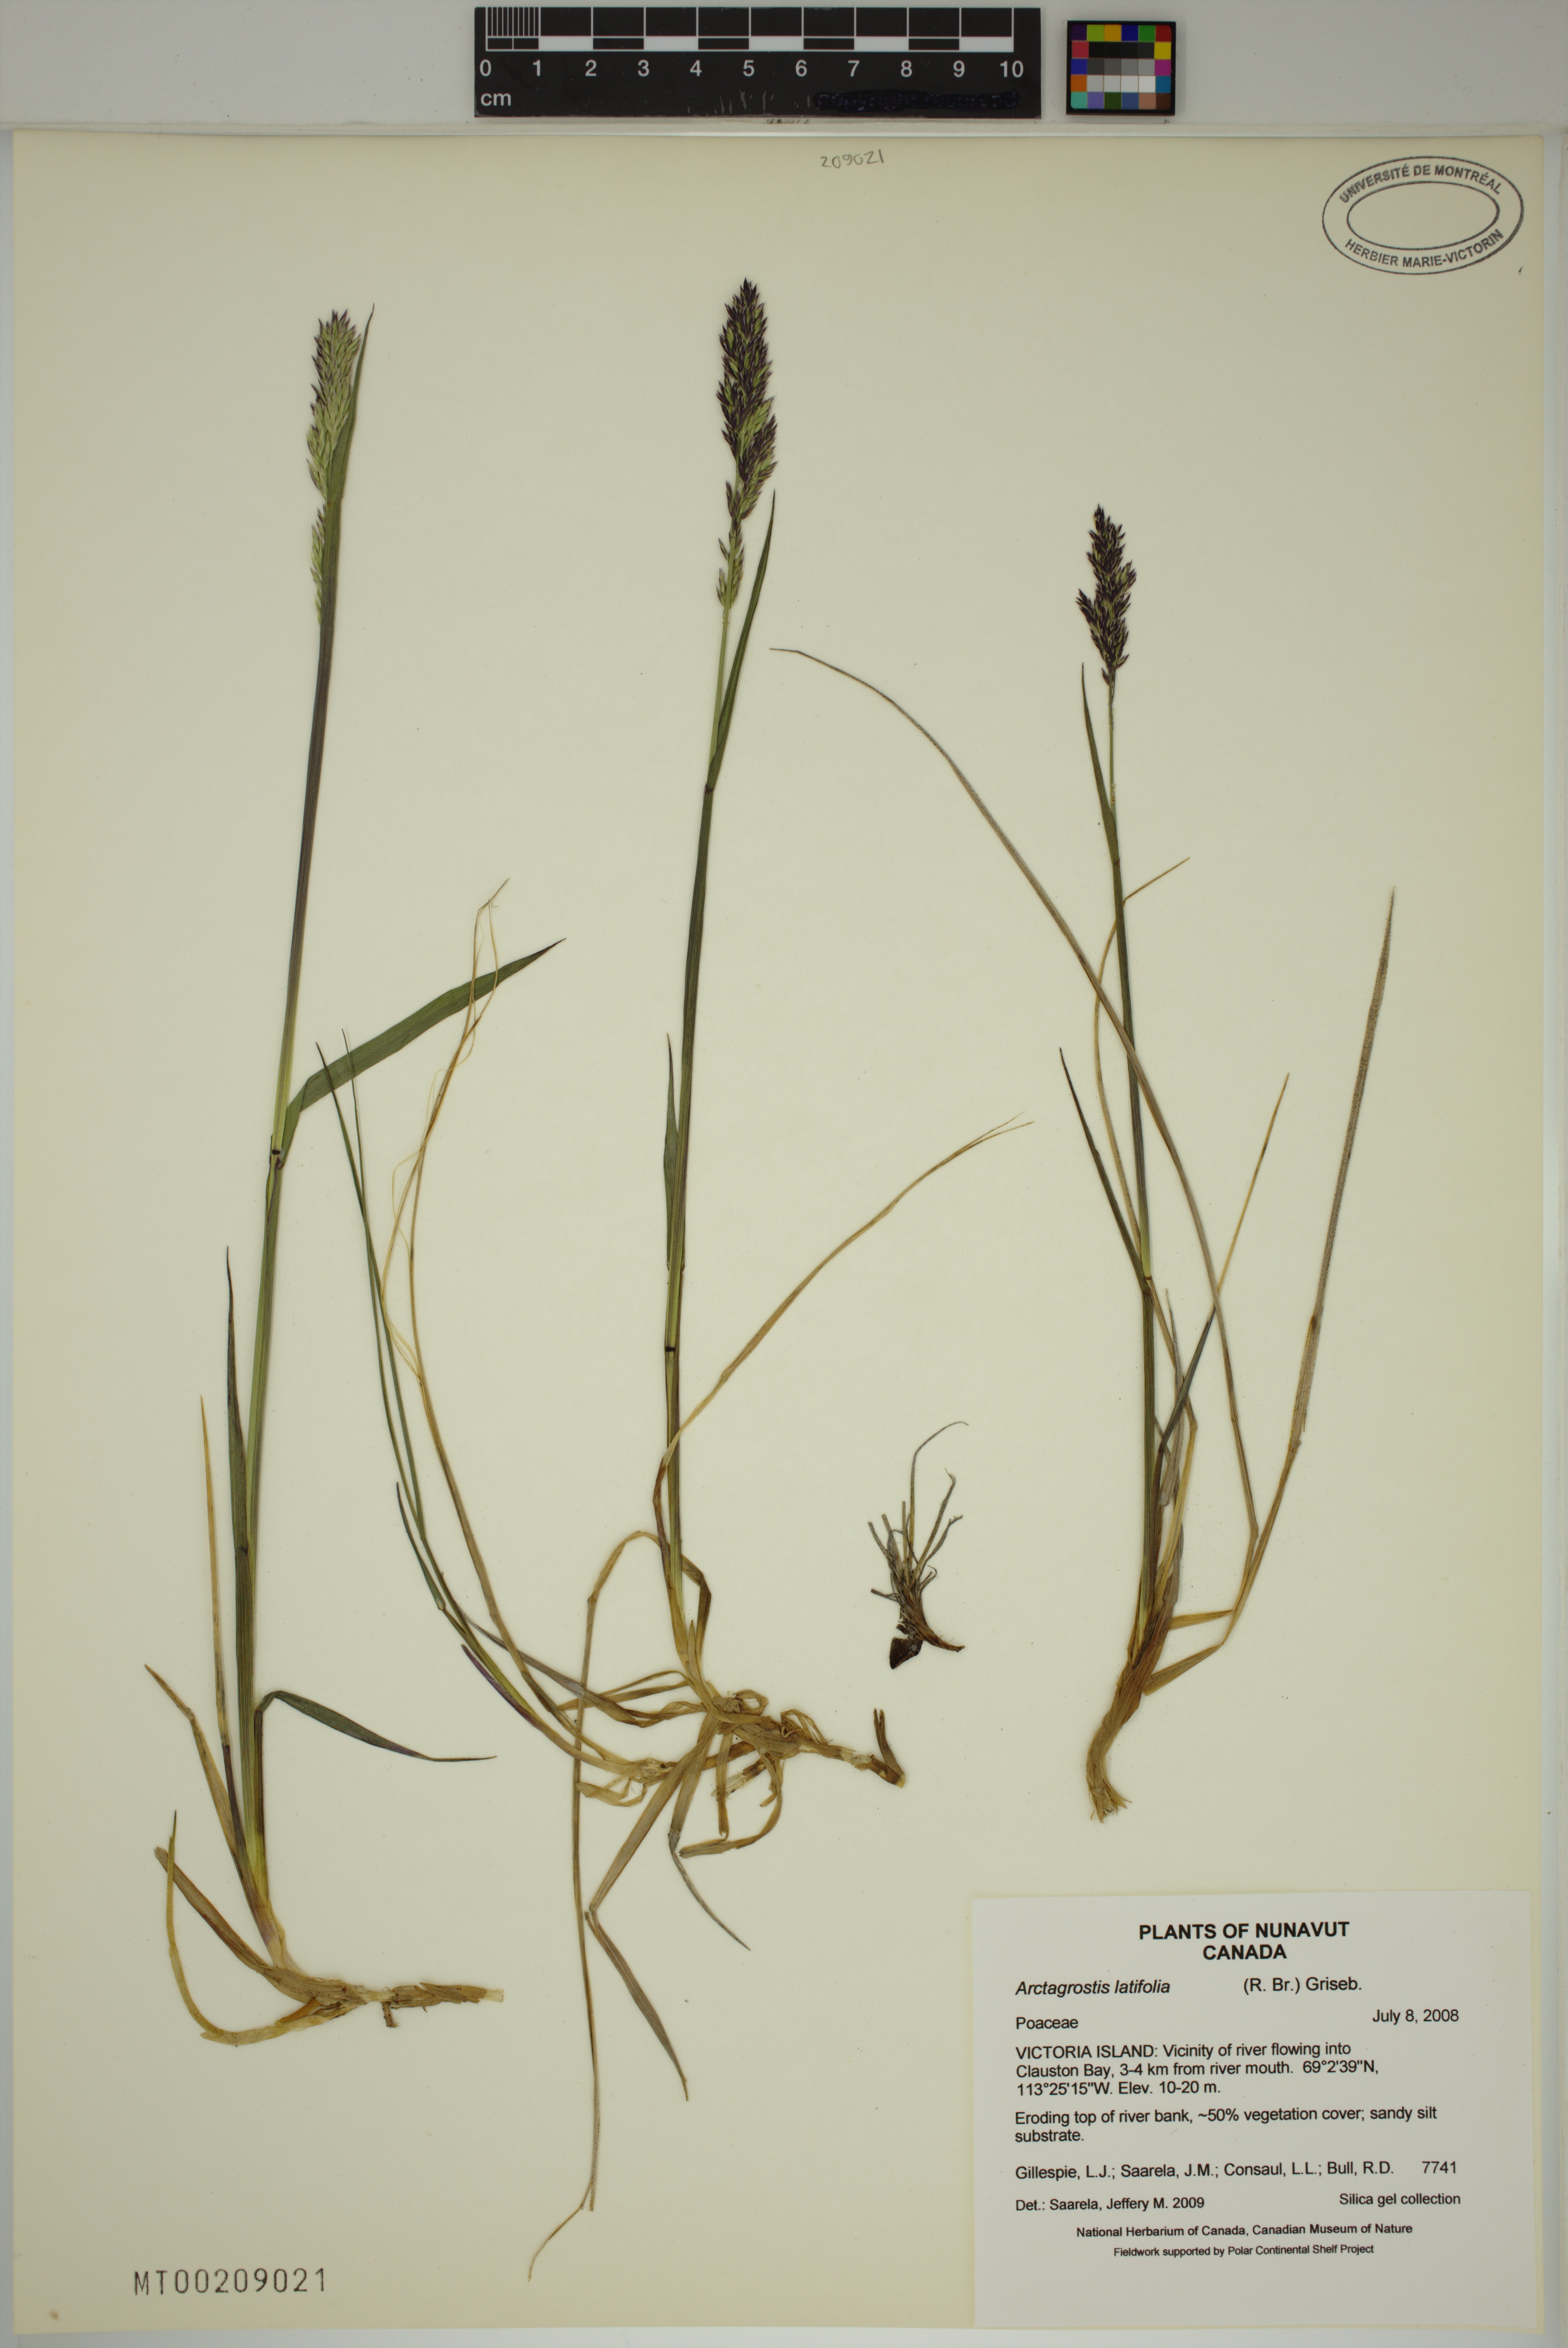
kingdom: Plantae
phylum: Tracheophyta
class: Liliopsida
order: Poales
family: Poaceae
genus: Arctagrostis
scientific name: Arctagrostis latifolia
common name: Arctic grass
